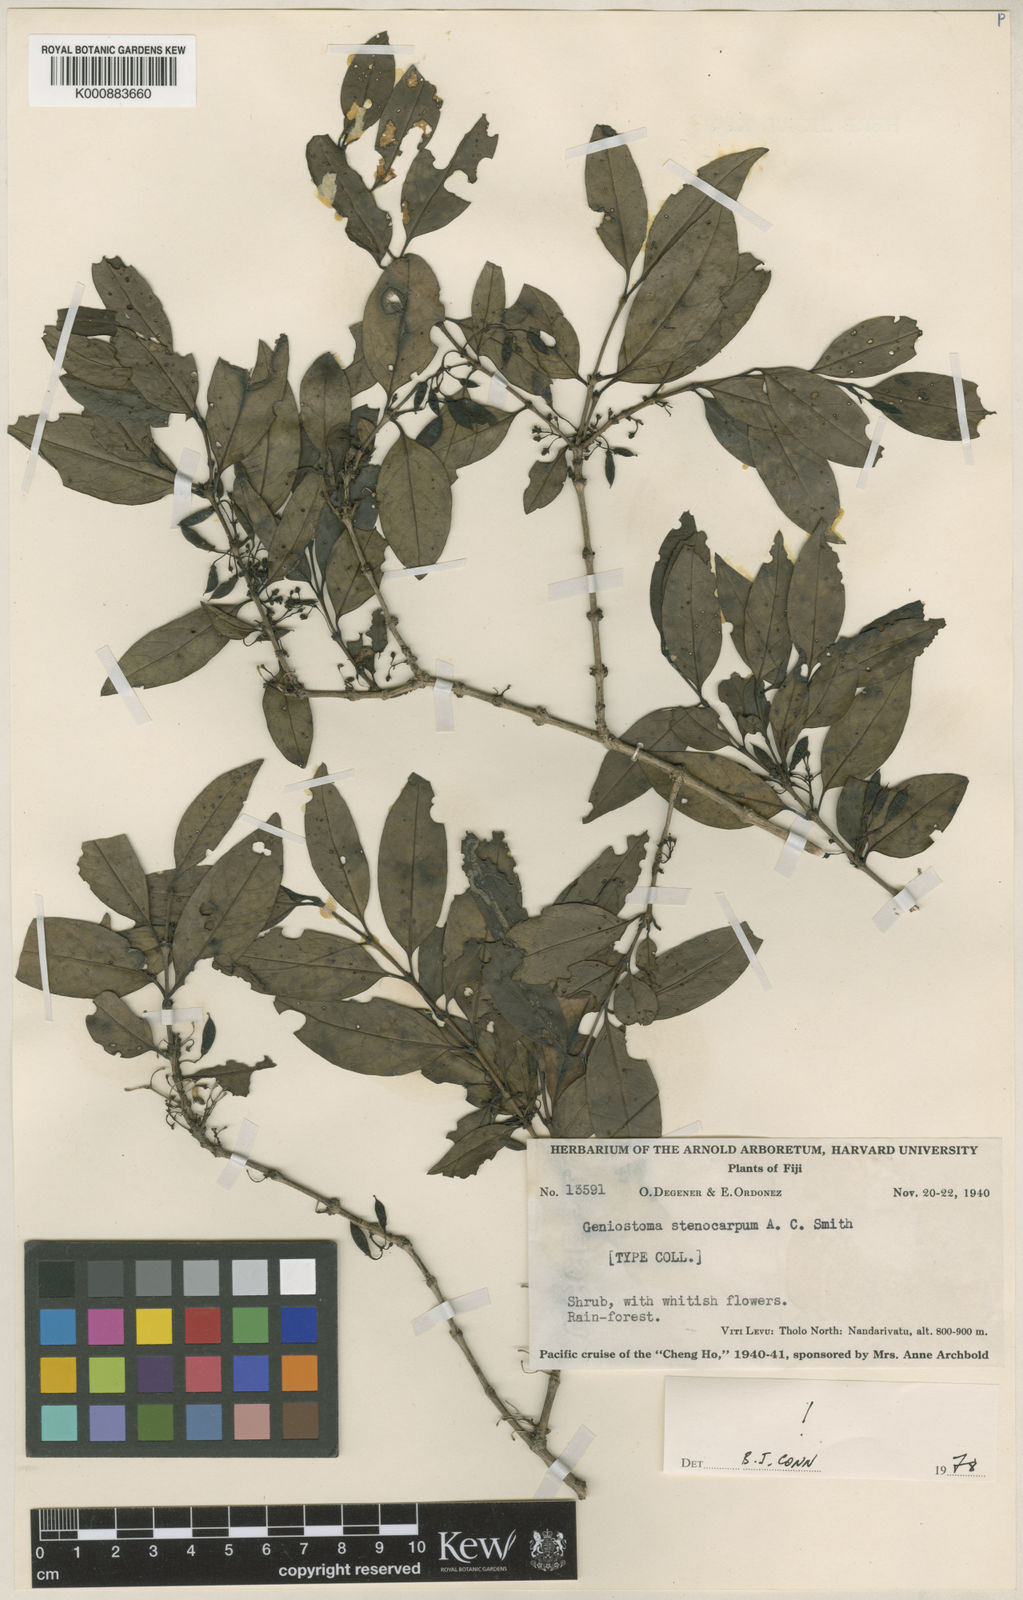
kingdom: Plantae
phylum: Tracheophyta
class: Magnoliopsida
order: Gentianales
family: Loganiaceae
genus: Geniostoma
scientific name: Geniostoma rupestre
